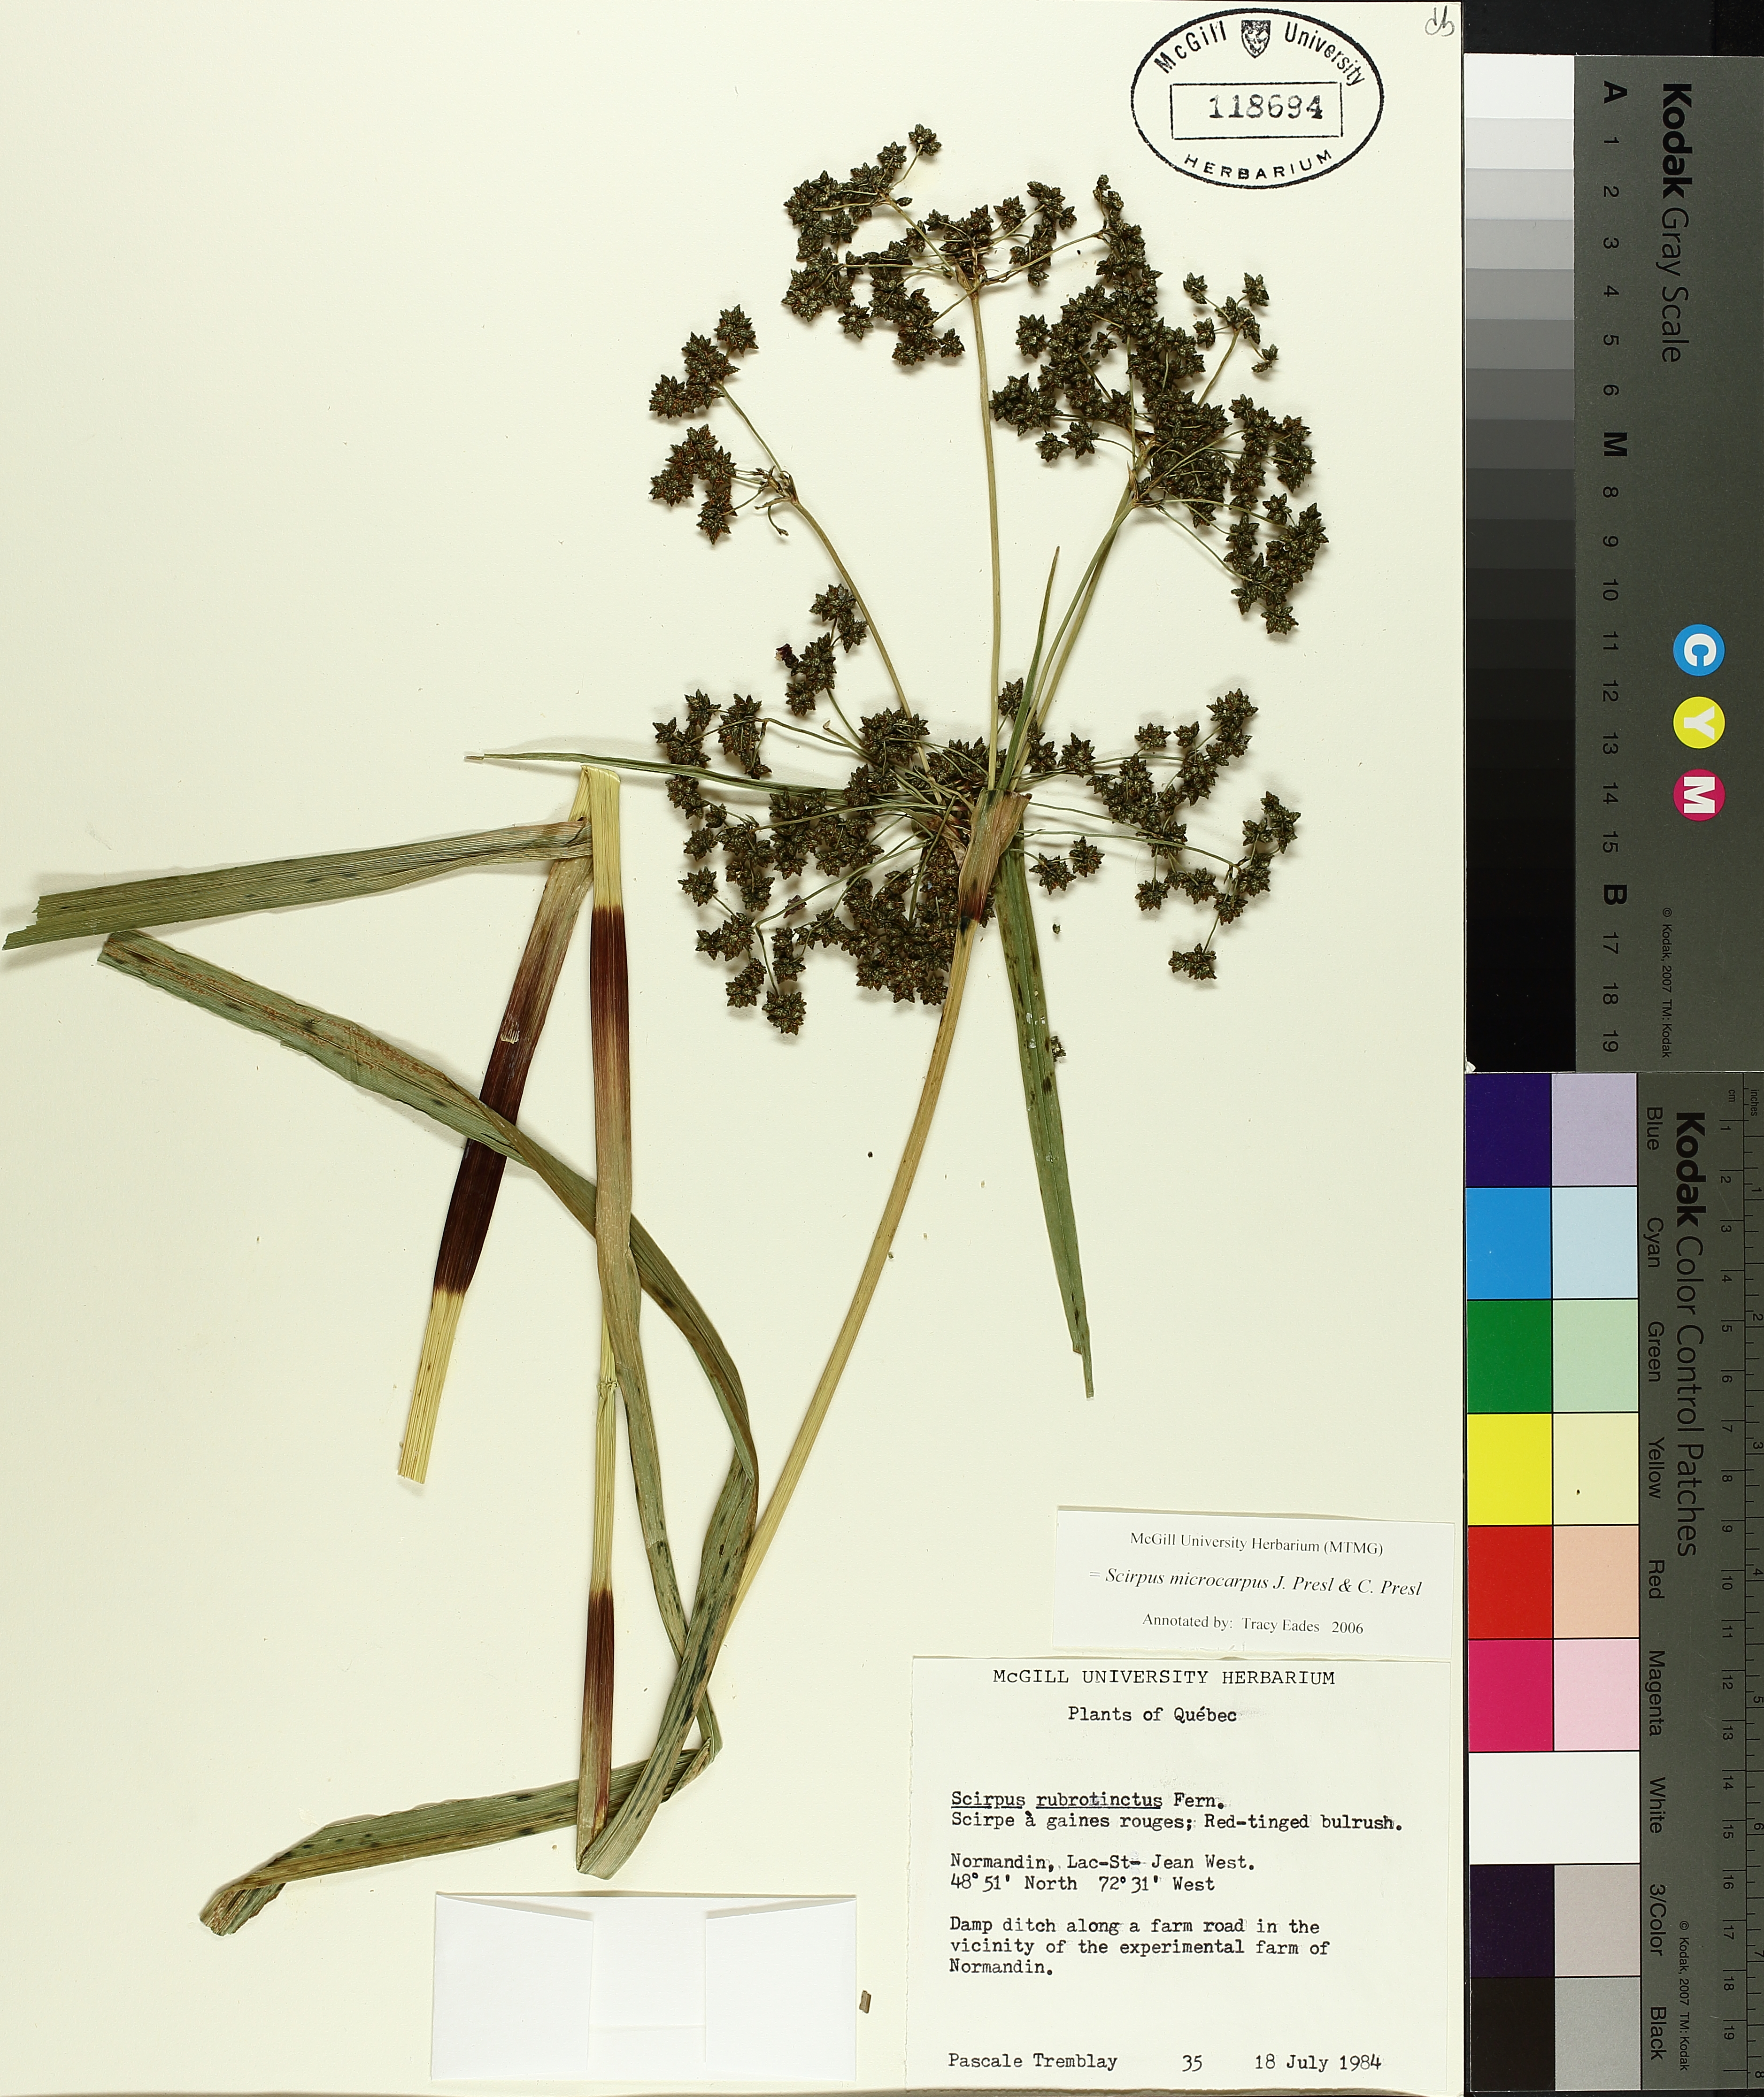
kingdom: Plantae
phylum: Tracheophyta
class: Liliopsida
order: Poales
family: Cyperaceae
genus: Scirpus
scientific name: Scirpus microcarpus
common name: Panicled bulrush
